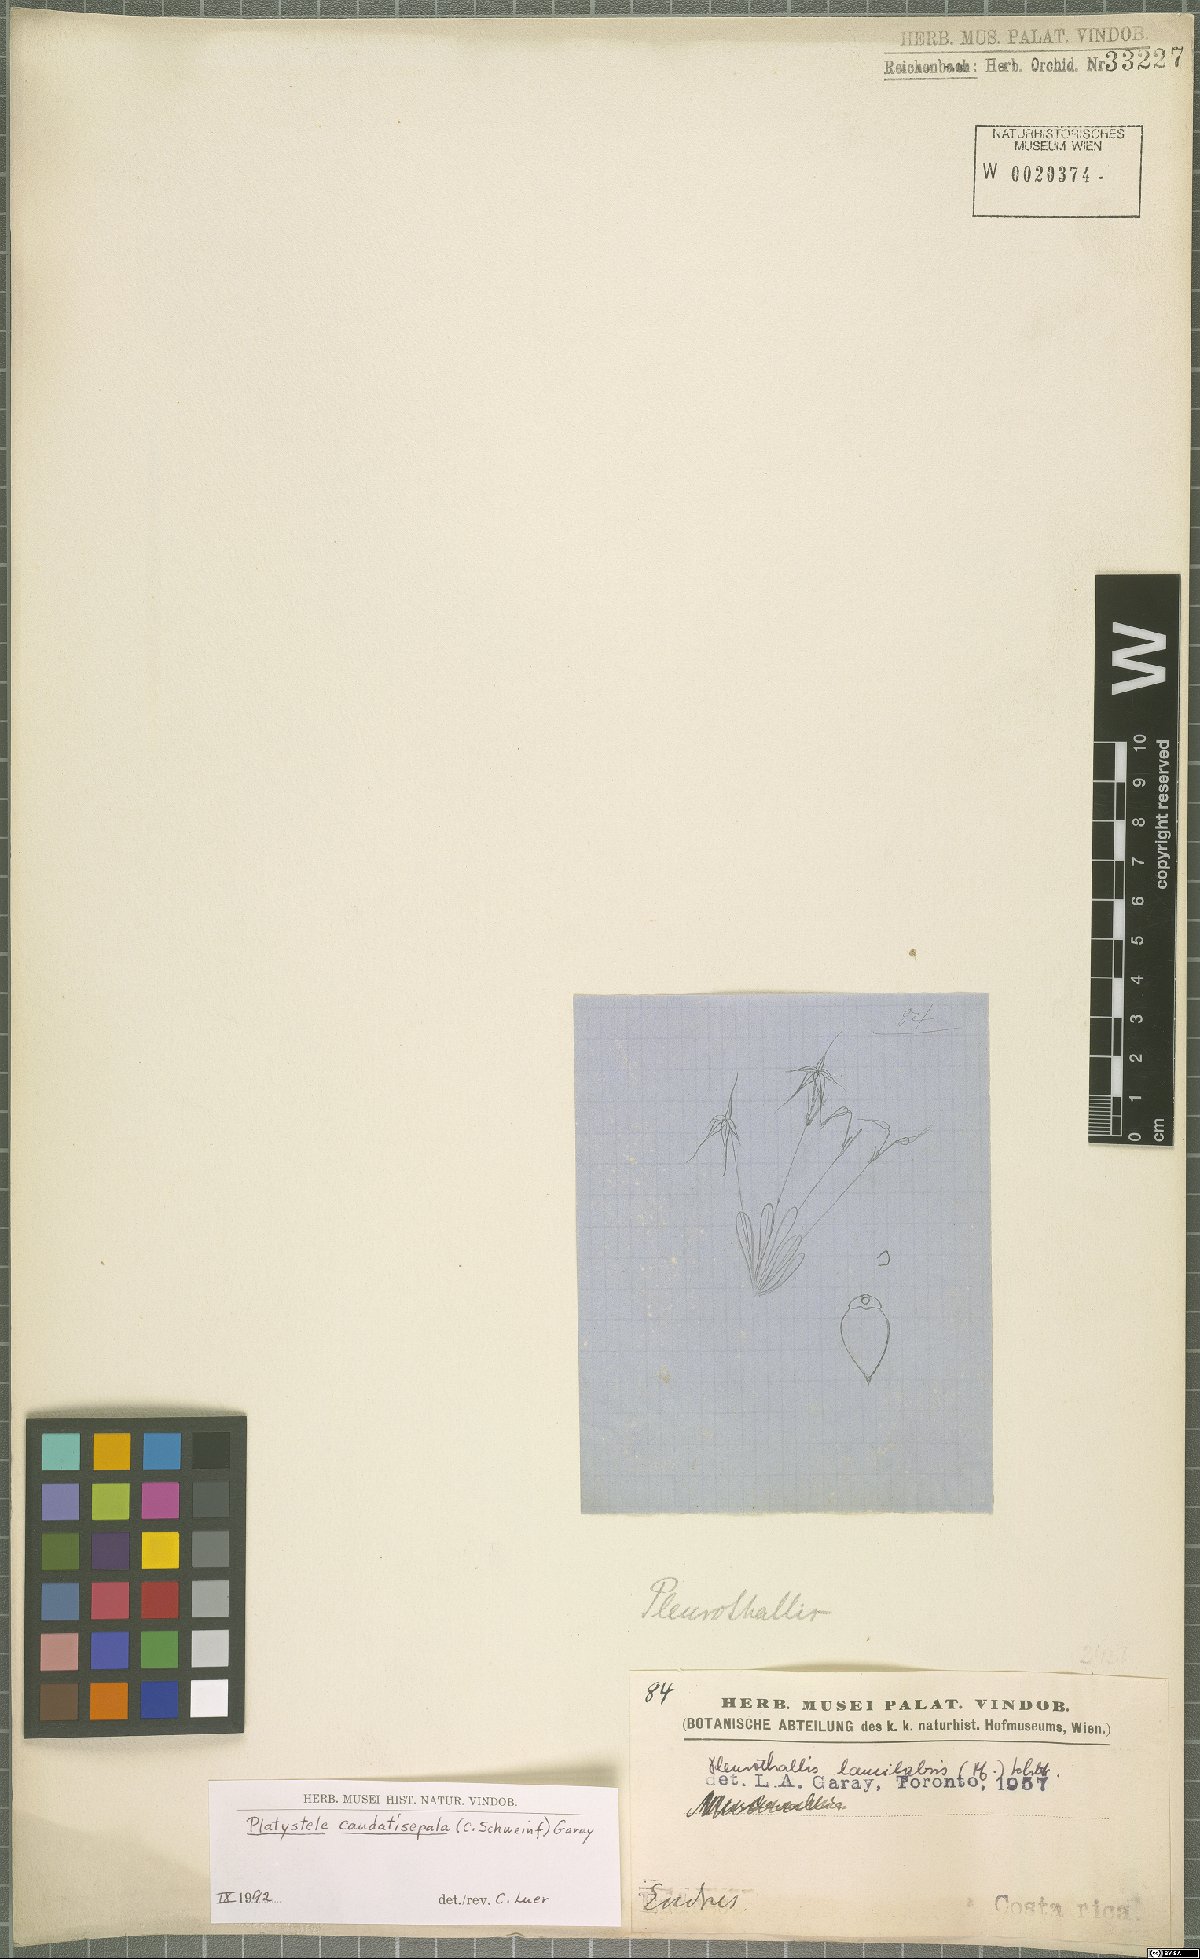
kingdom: Plantae
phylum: Tracheophyta
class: Liliopsida
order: Asparagales
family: Orchidaceae
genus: Platystele
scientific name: Platystele caudatisepala
